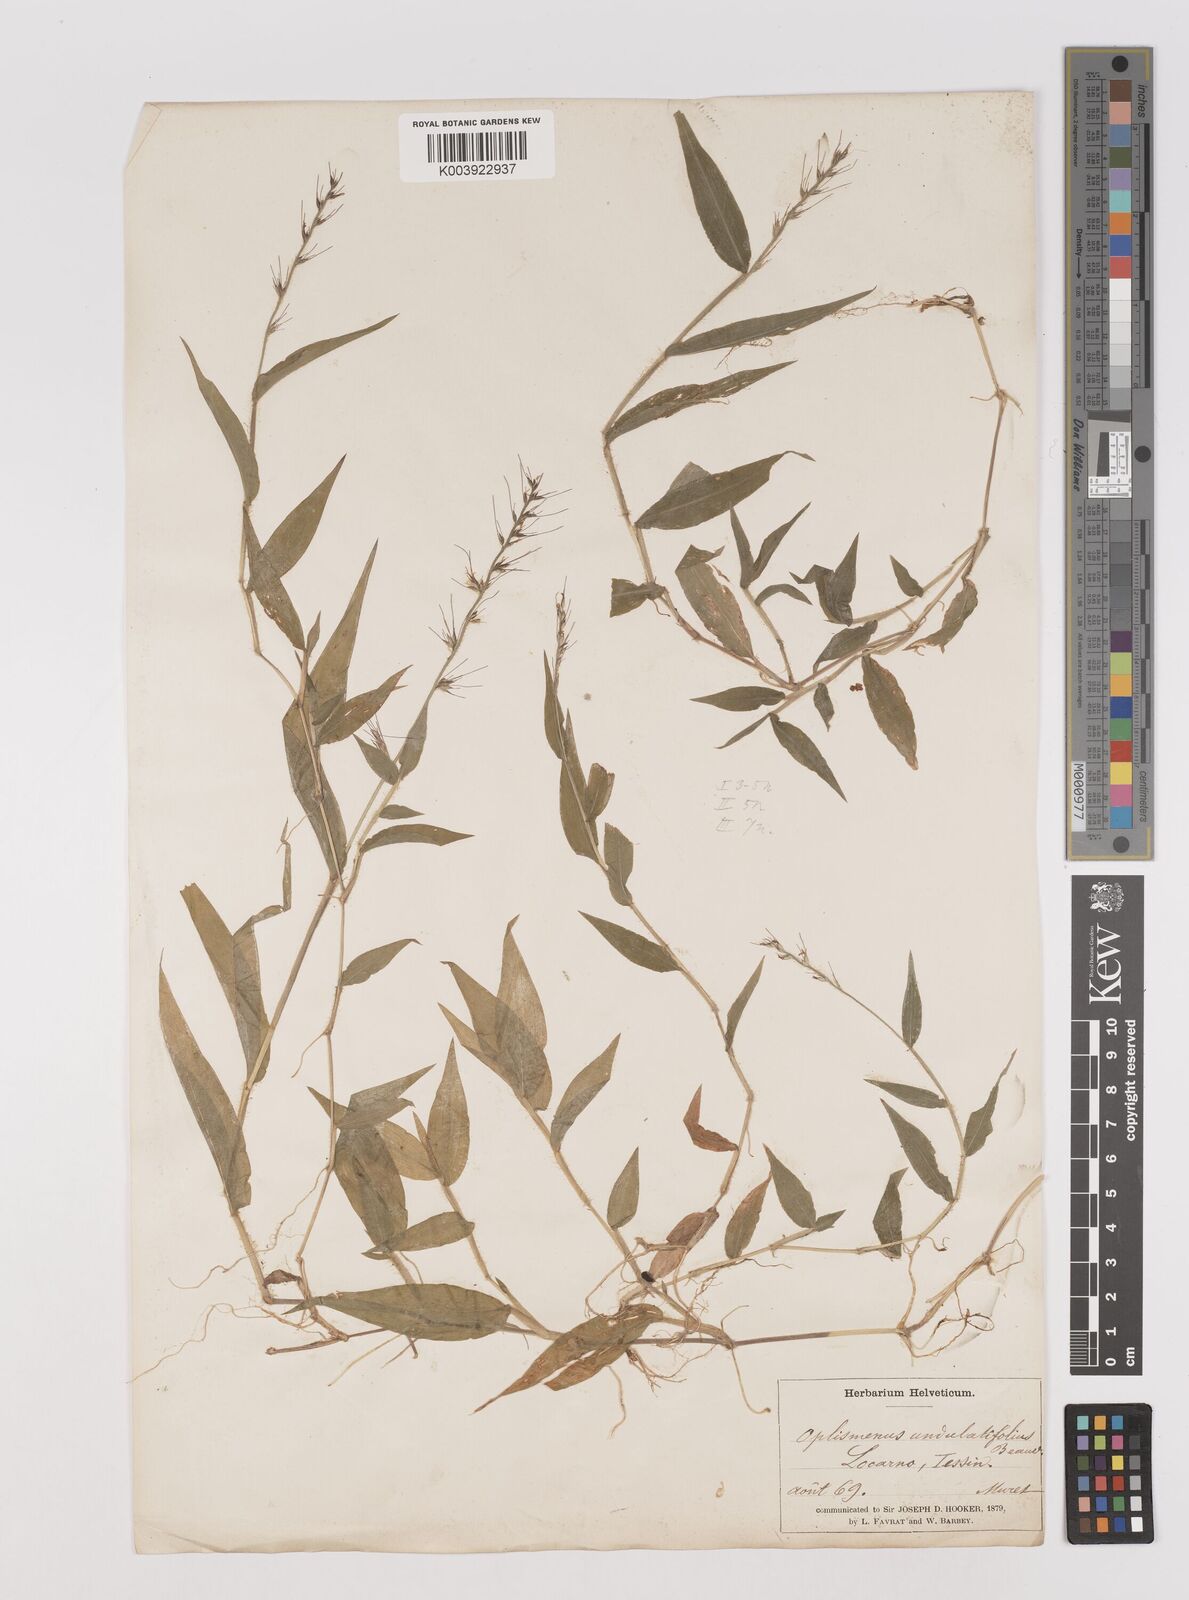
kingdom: Plantae
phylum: Tracheophyta
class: Liliopsida
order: Poales
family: Poaceae
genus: Oplismenus
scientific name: Oplismenus undulatifolius
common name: Wavyleaf basketgrass
